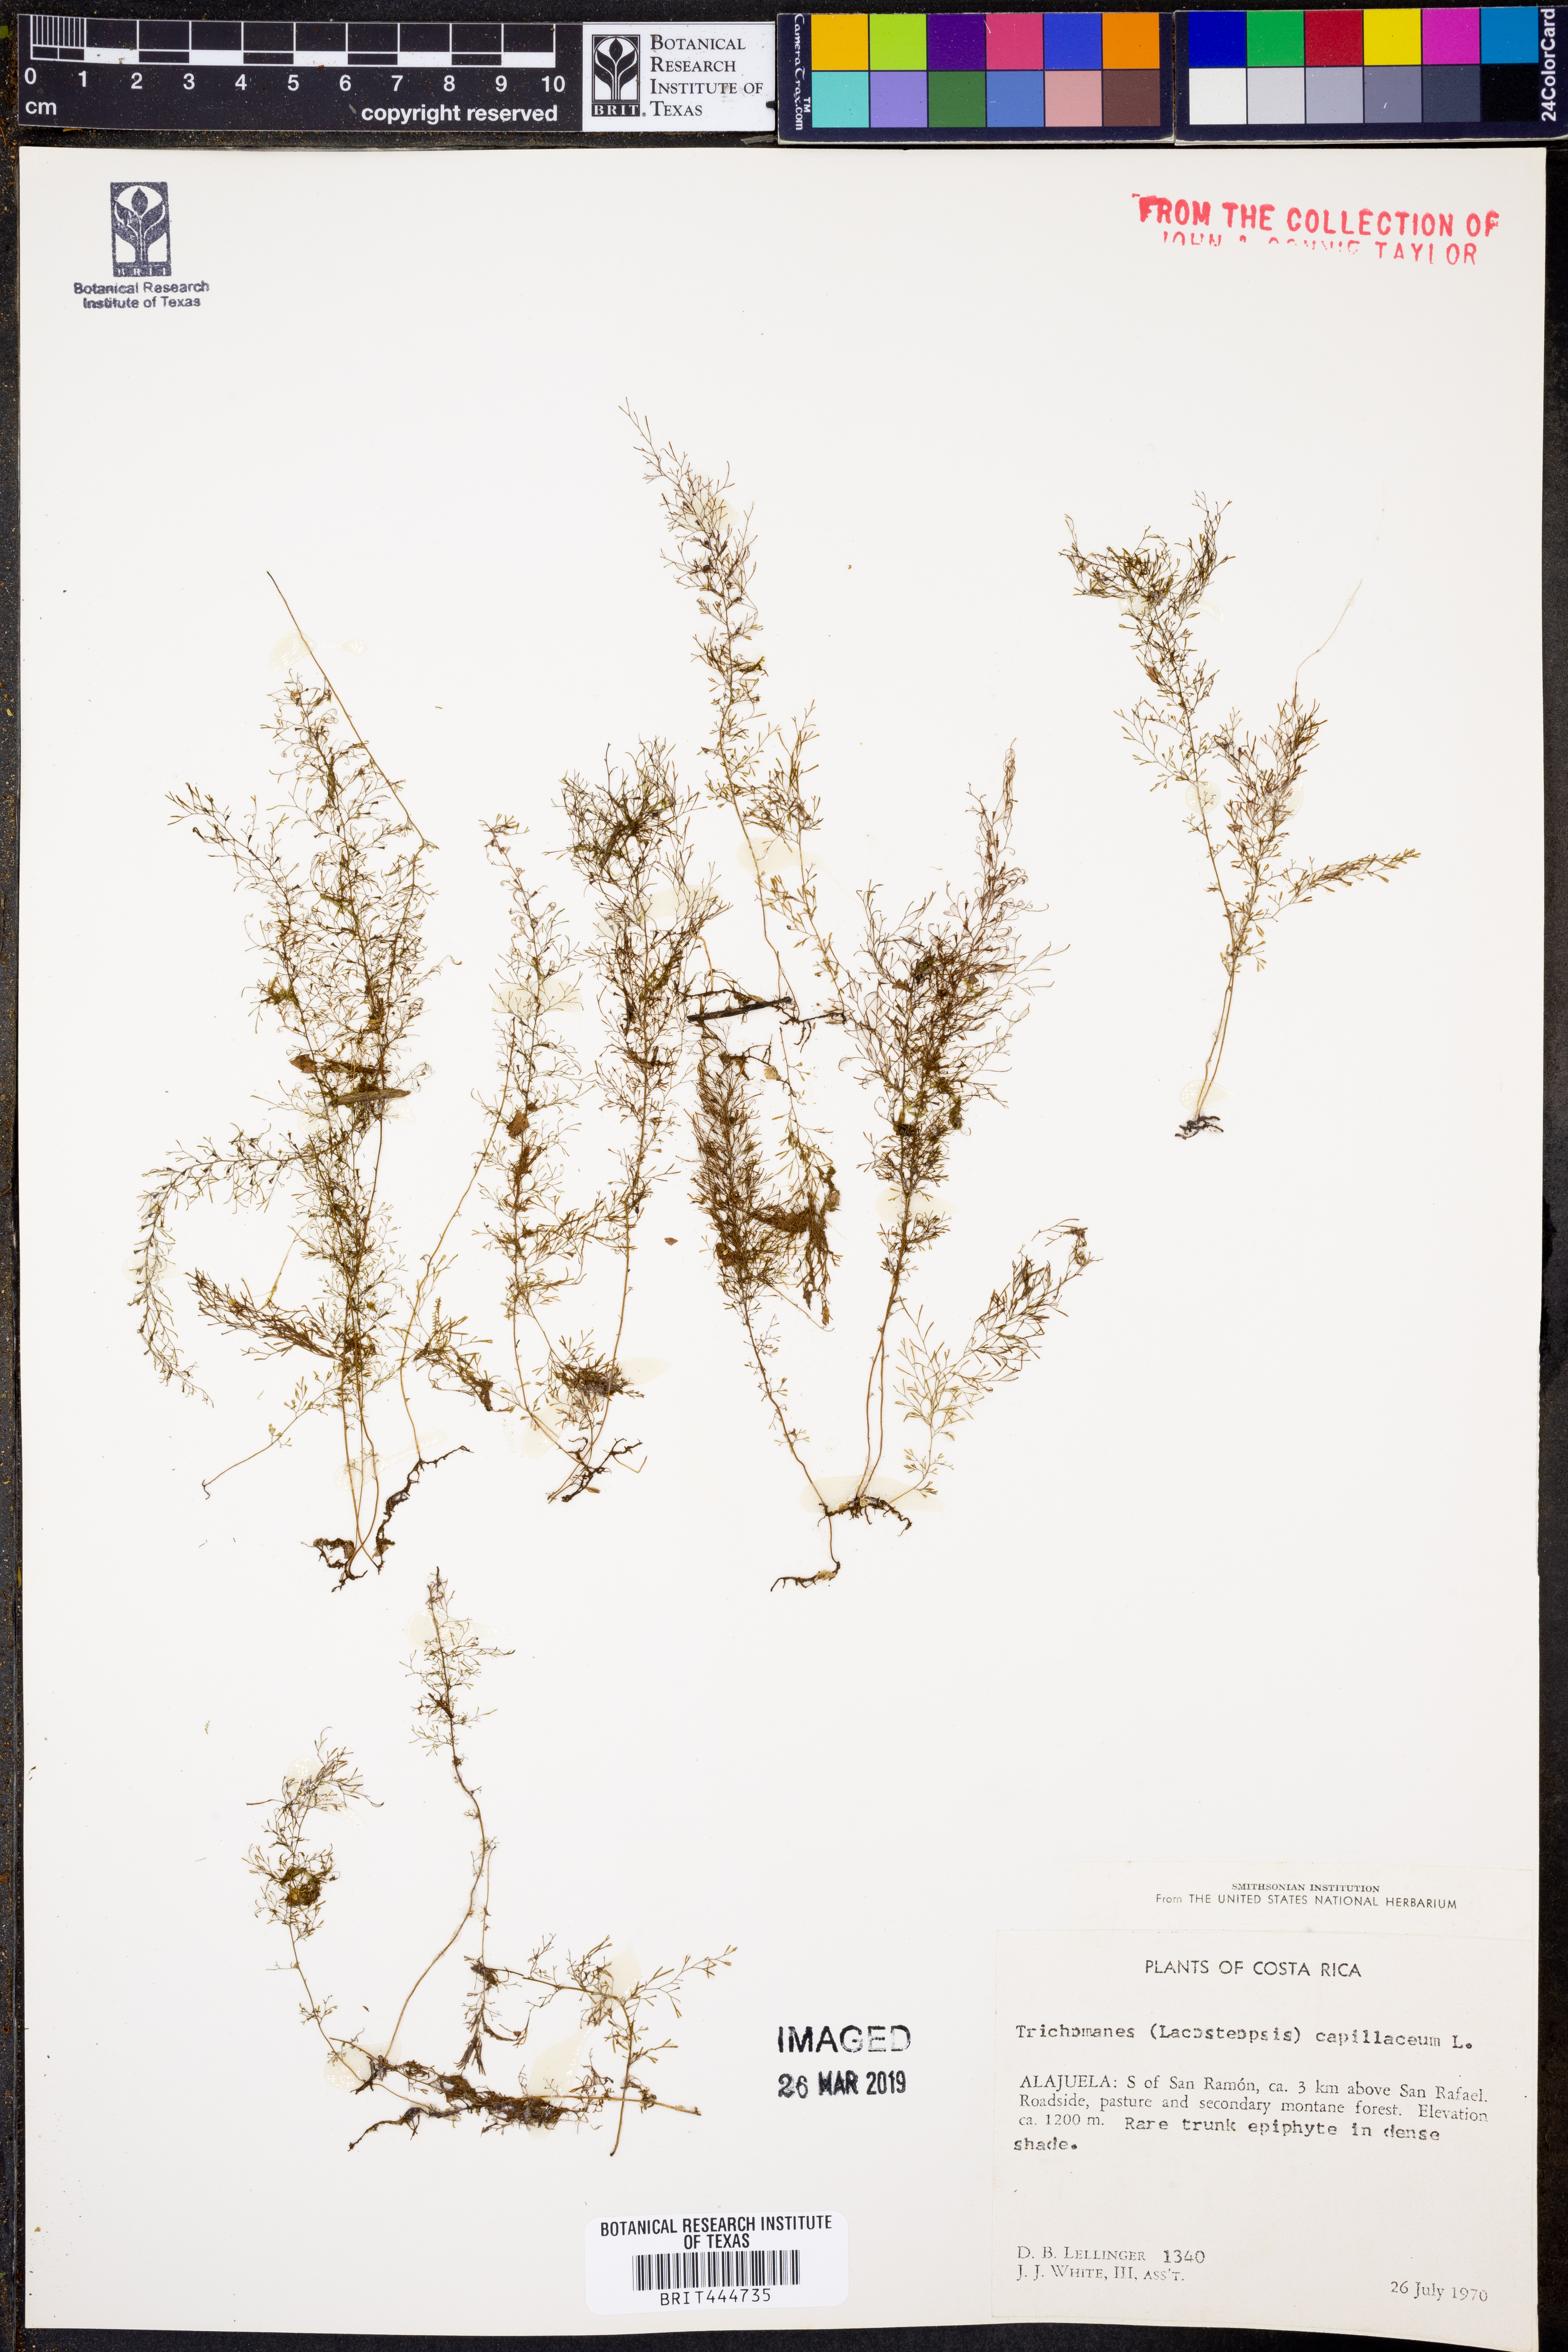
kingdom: Plantae
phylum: Tracheophyta
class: Polypodiopsida
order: Hymenophyllales
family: Hymenophyllaceae
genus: Polyphlebium
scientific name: Polyphlebium capillaceum
